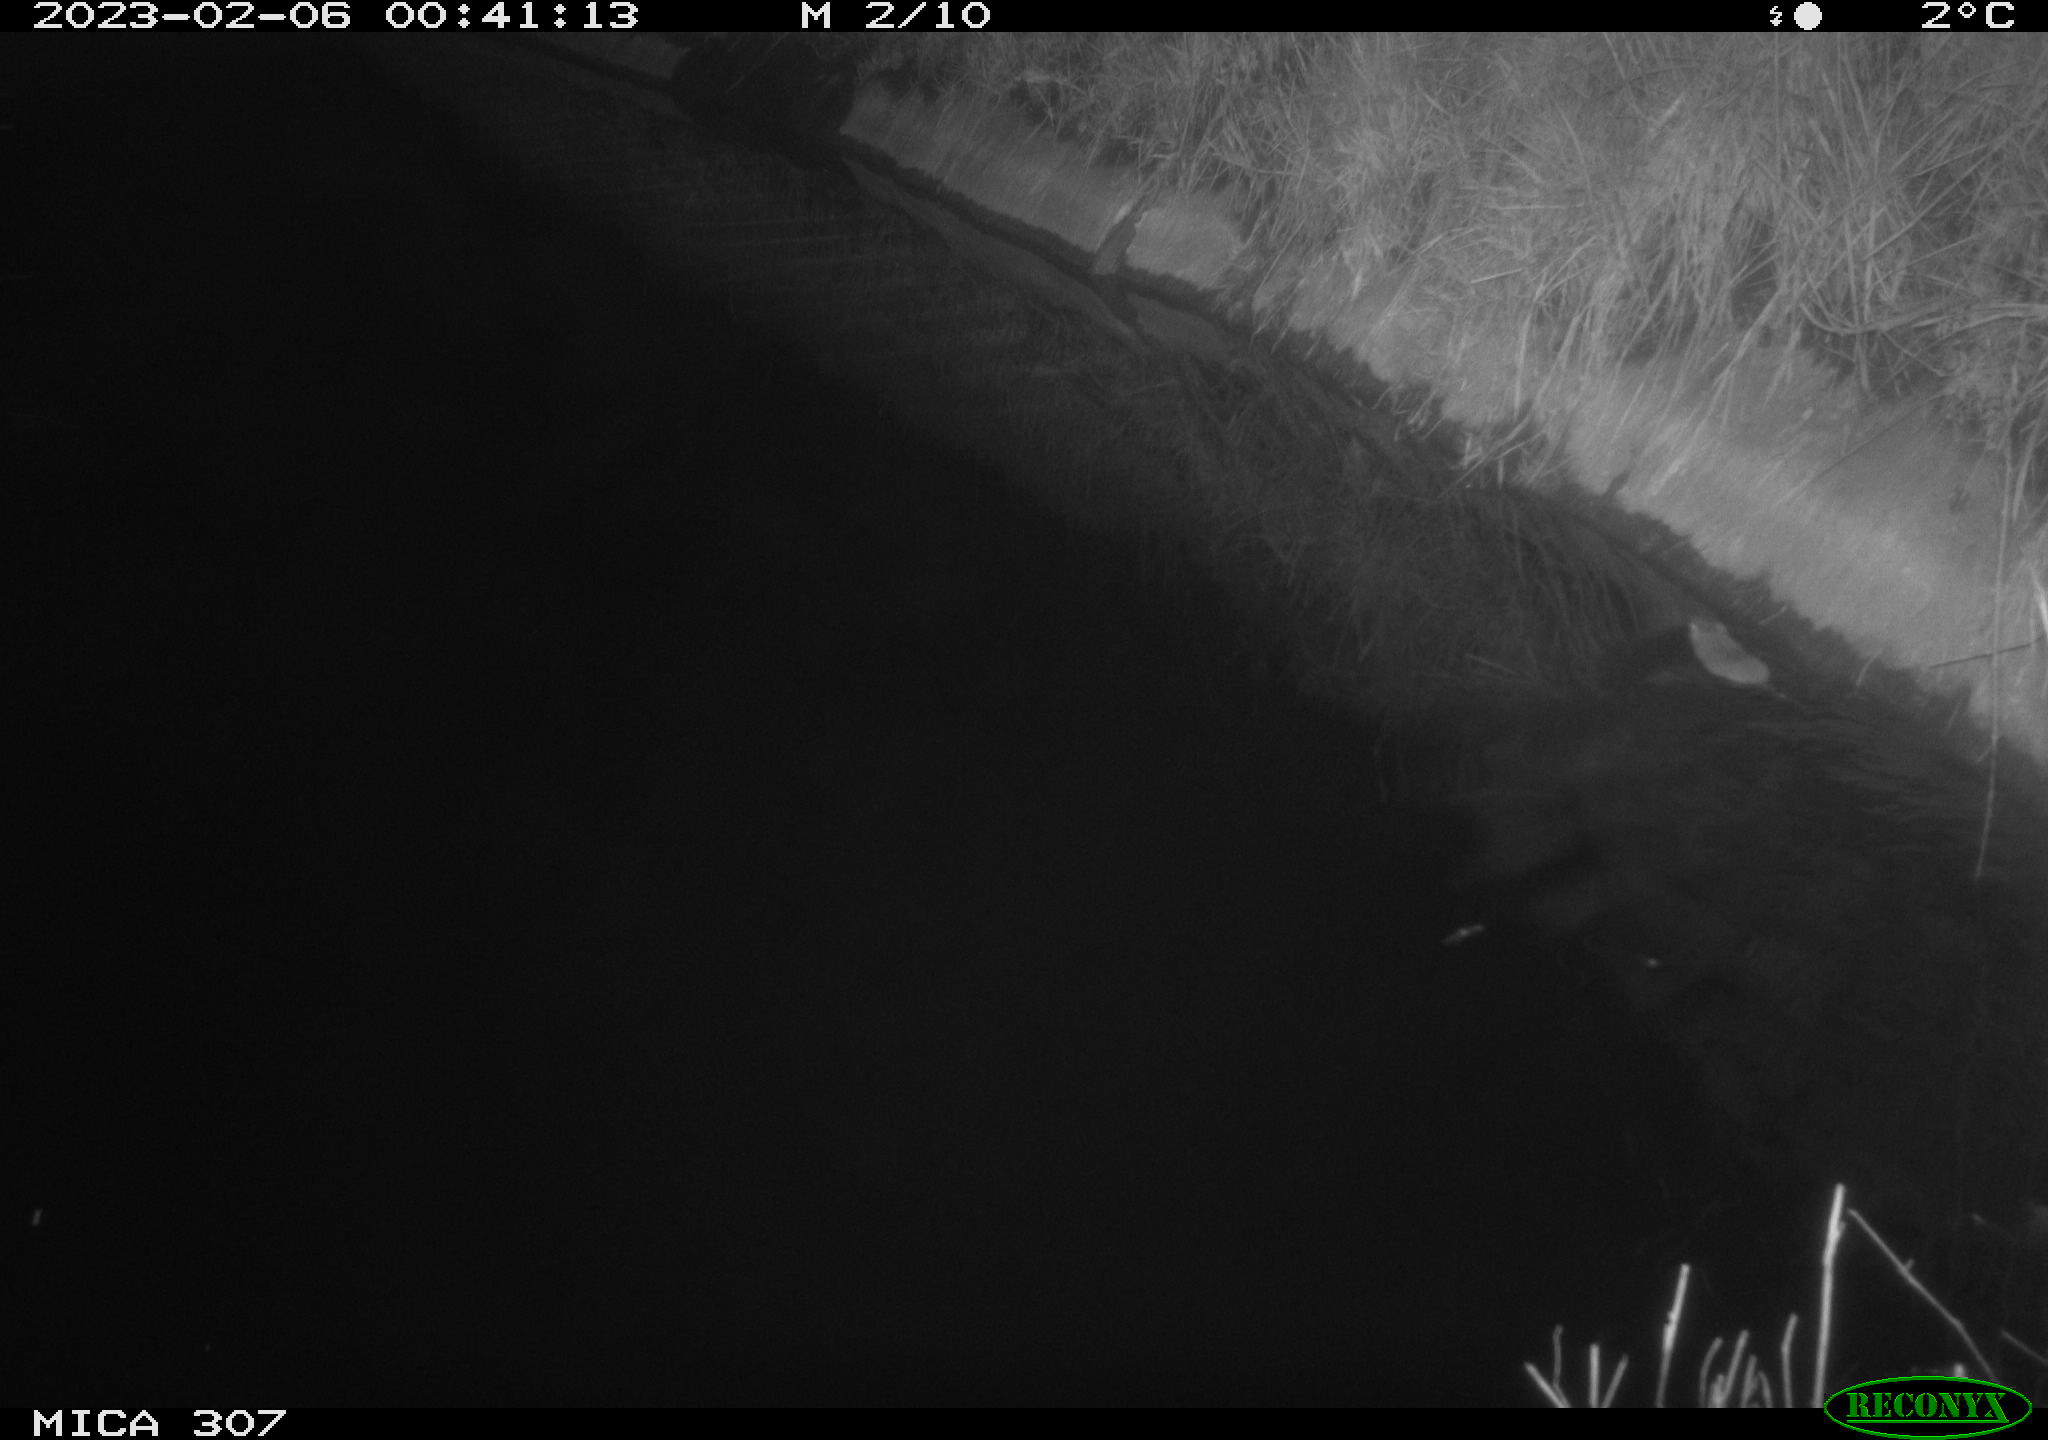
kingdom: Animalia
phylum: Chordata
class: Mammalia
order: Rodentia
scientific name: Rodentia
